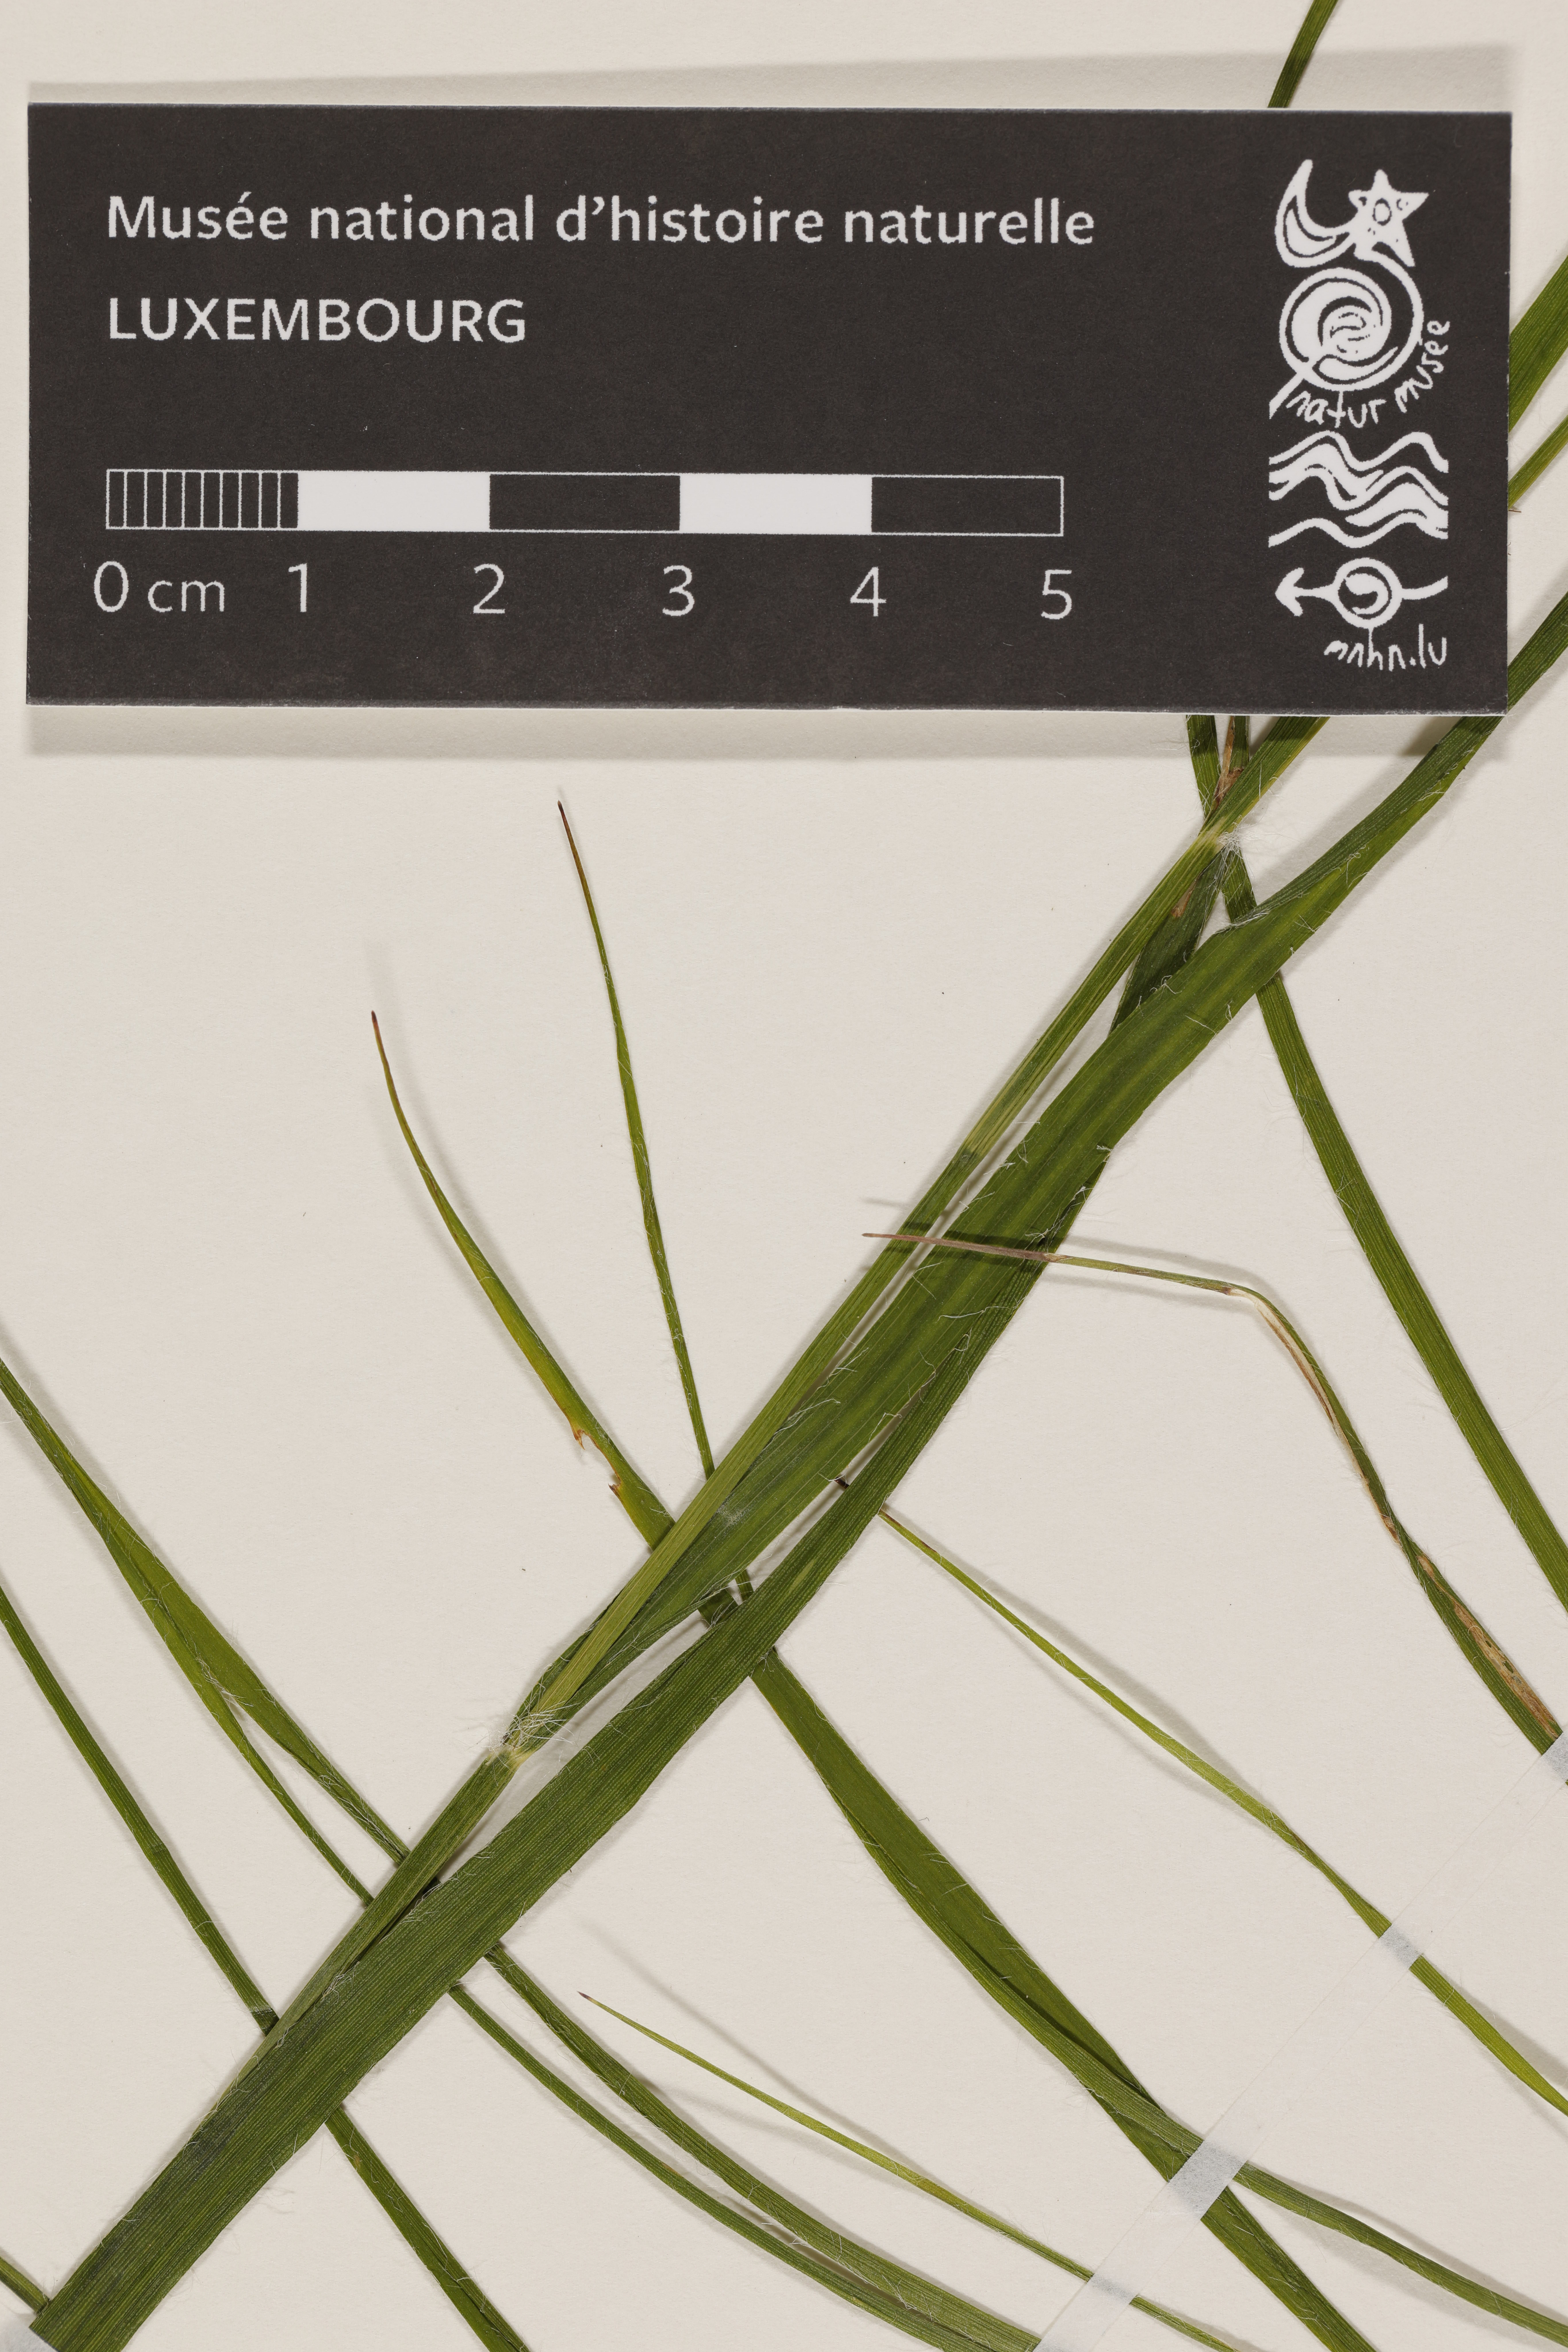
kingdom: Plantae
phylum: Tracheophyta
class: Liliopsida
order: Poales
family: Juncaceae
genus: Luzula
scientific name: Luzula
